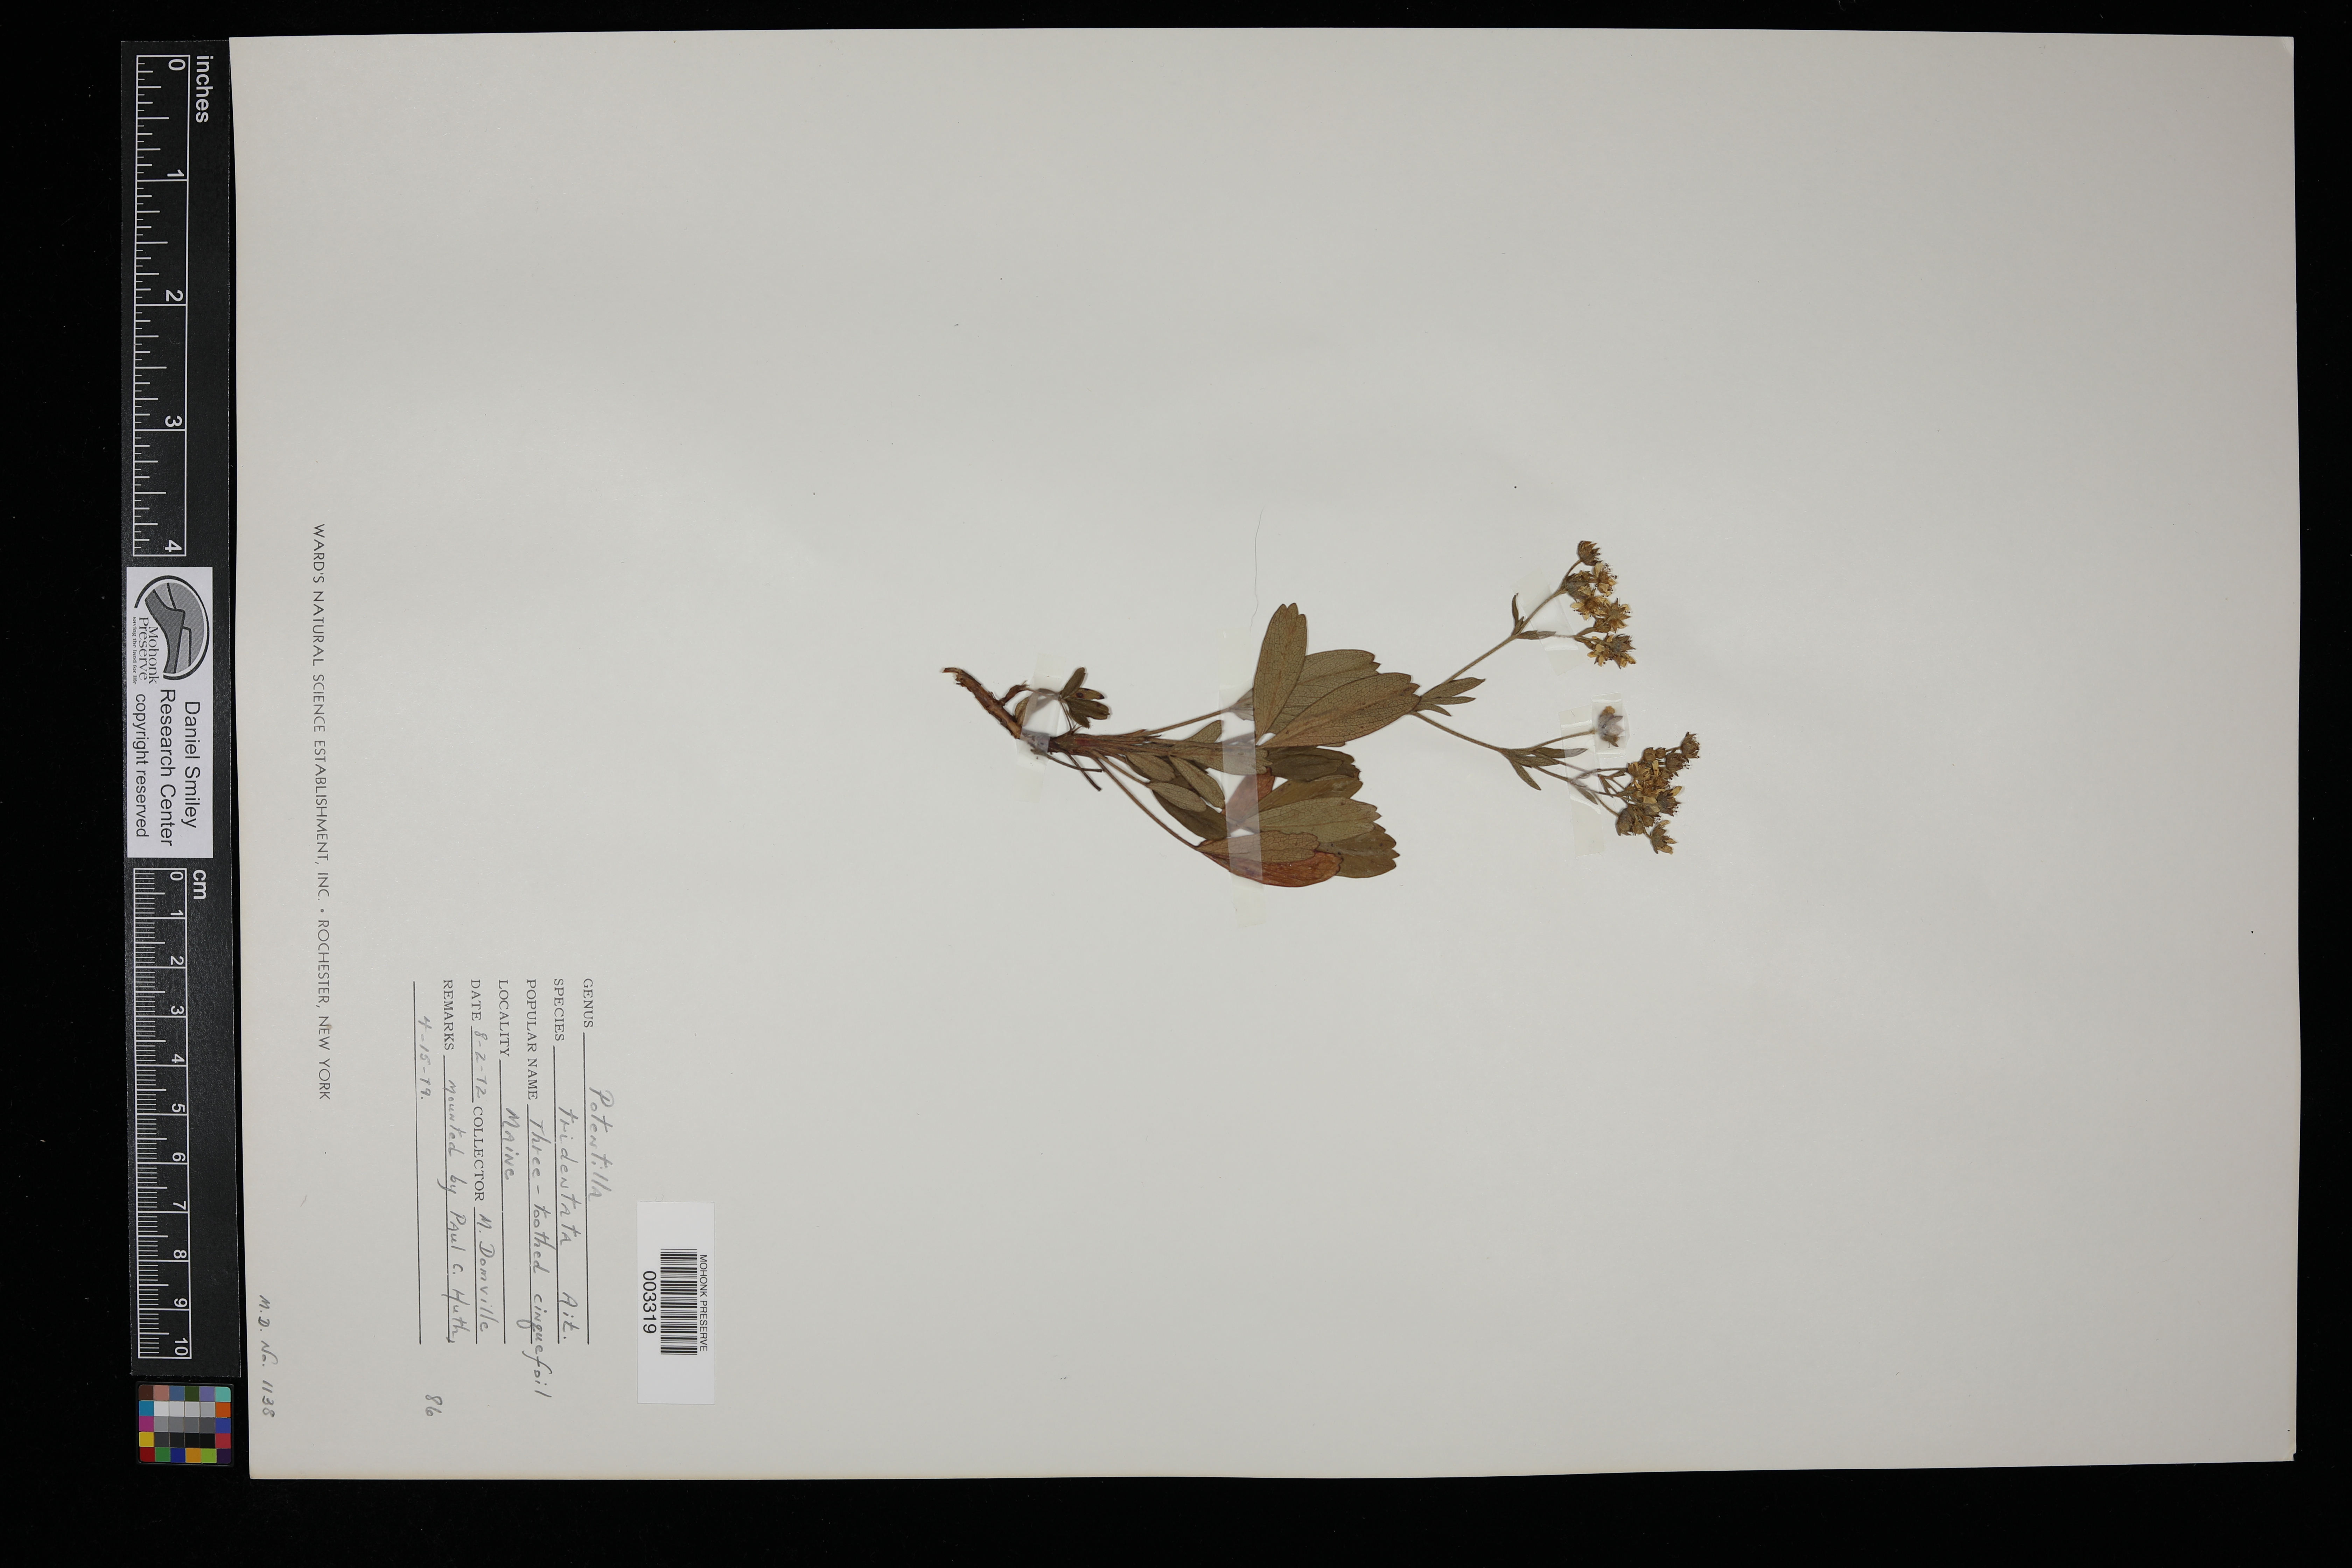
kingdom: Plantae
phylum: Tracheophyta
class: Magnoliopsida
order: Rosales
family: Rosaceae
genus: Sibbaldia
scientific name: Sibbaldia tridentata
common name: Three-toothed cinquefoil
